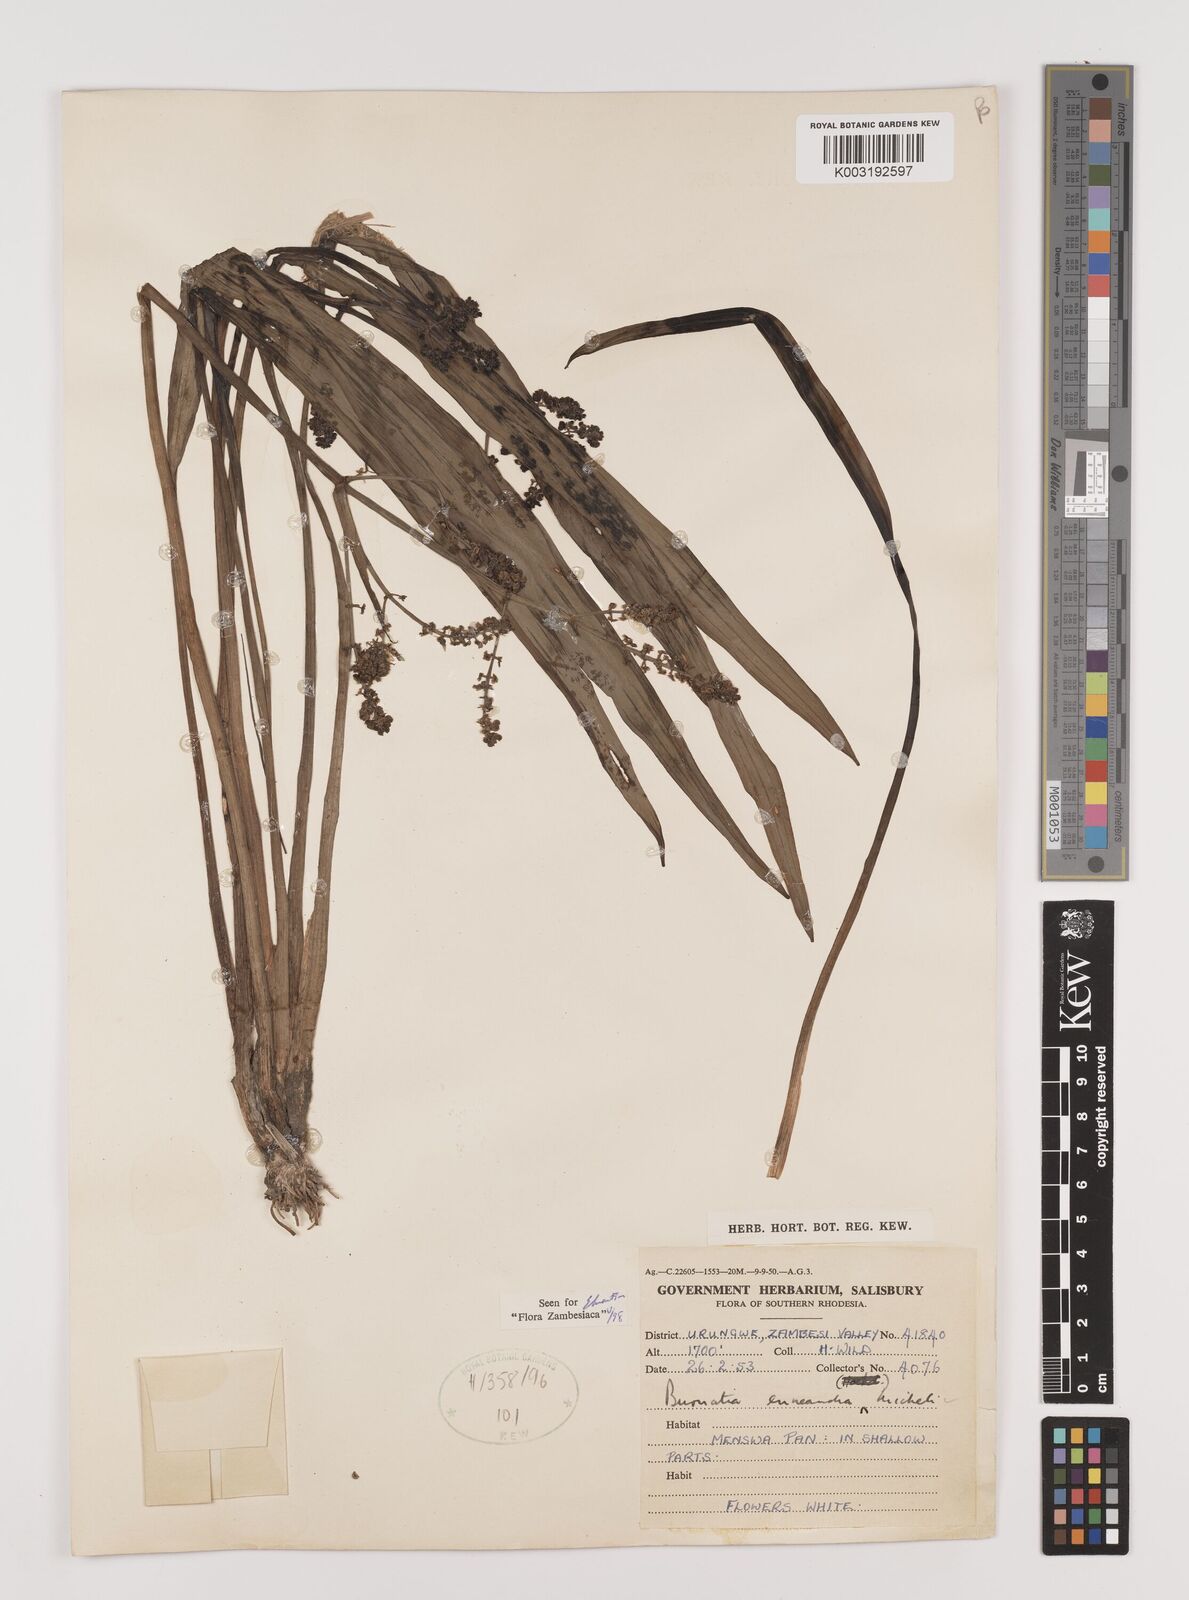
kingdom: Plantae
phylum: Tracheophyta
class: Liliopsida
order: Alismatales
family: Alismataceae
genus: Burnatia
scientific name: Burnatia enneandra
